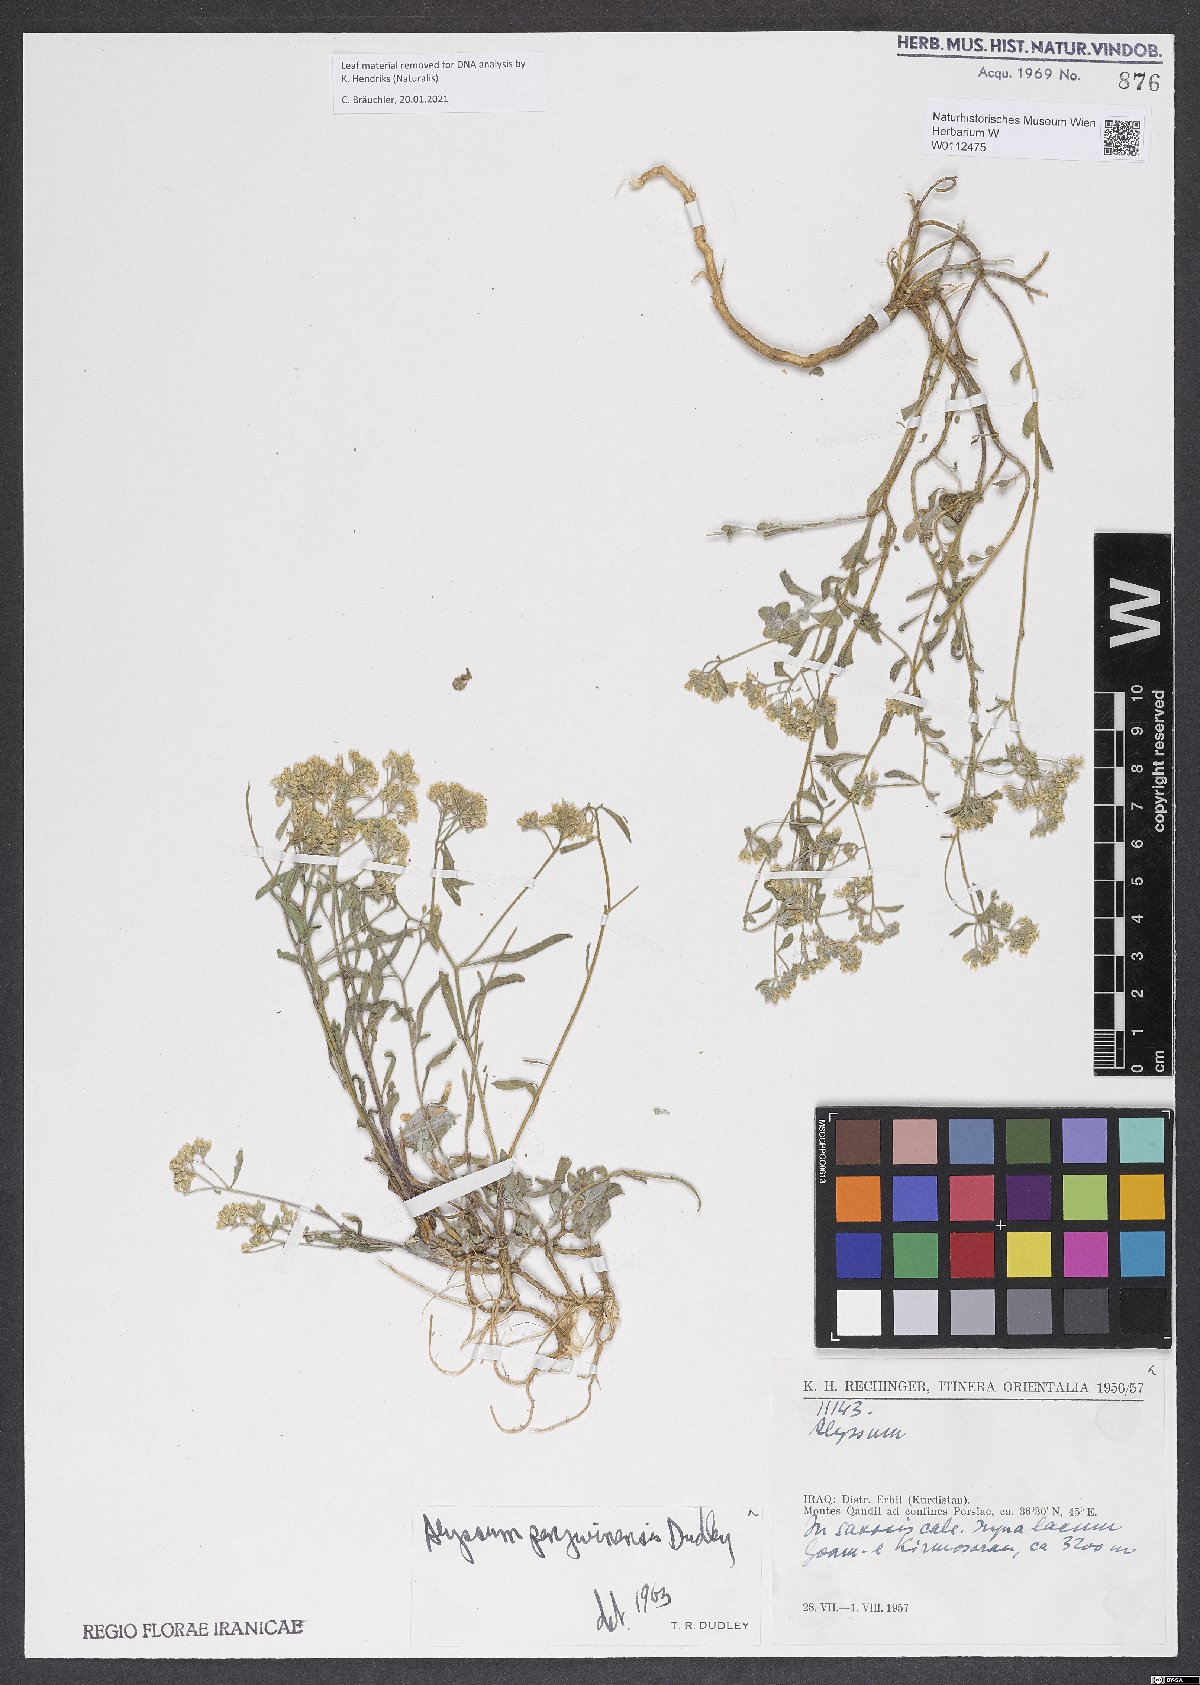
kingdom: Plantae
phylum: Tracheophyta
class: Magnoliopsida
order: Brassicales
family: Brassicaceae
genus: Odontarrhena
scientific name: Odontarrhena penjwinensis
